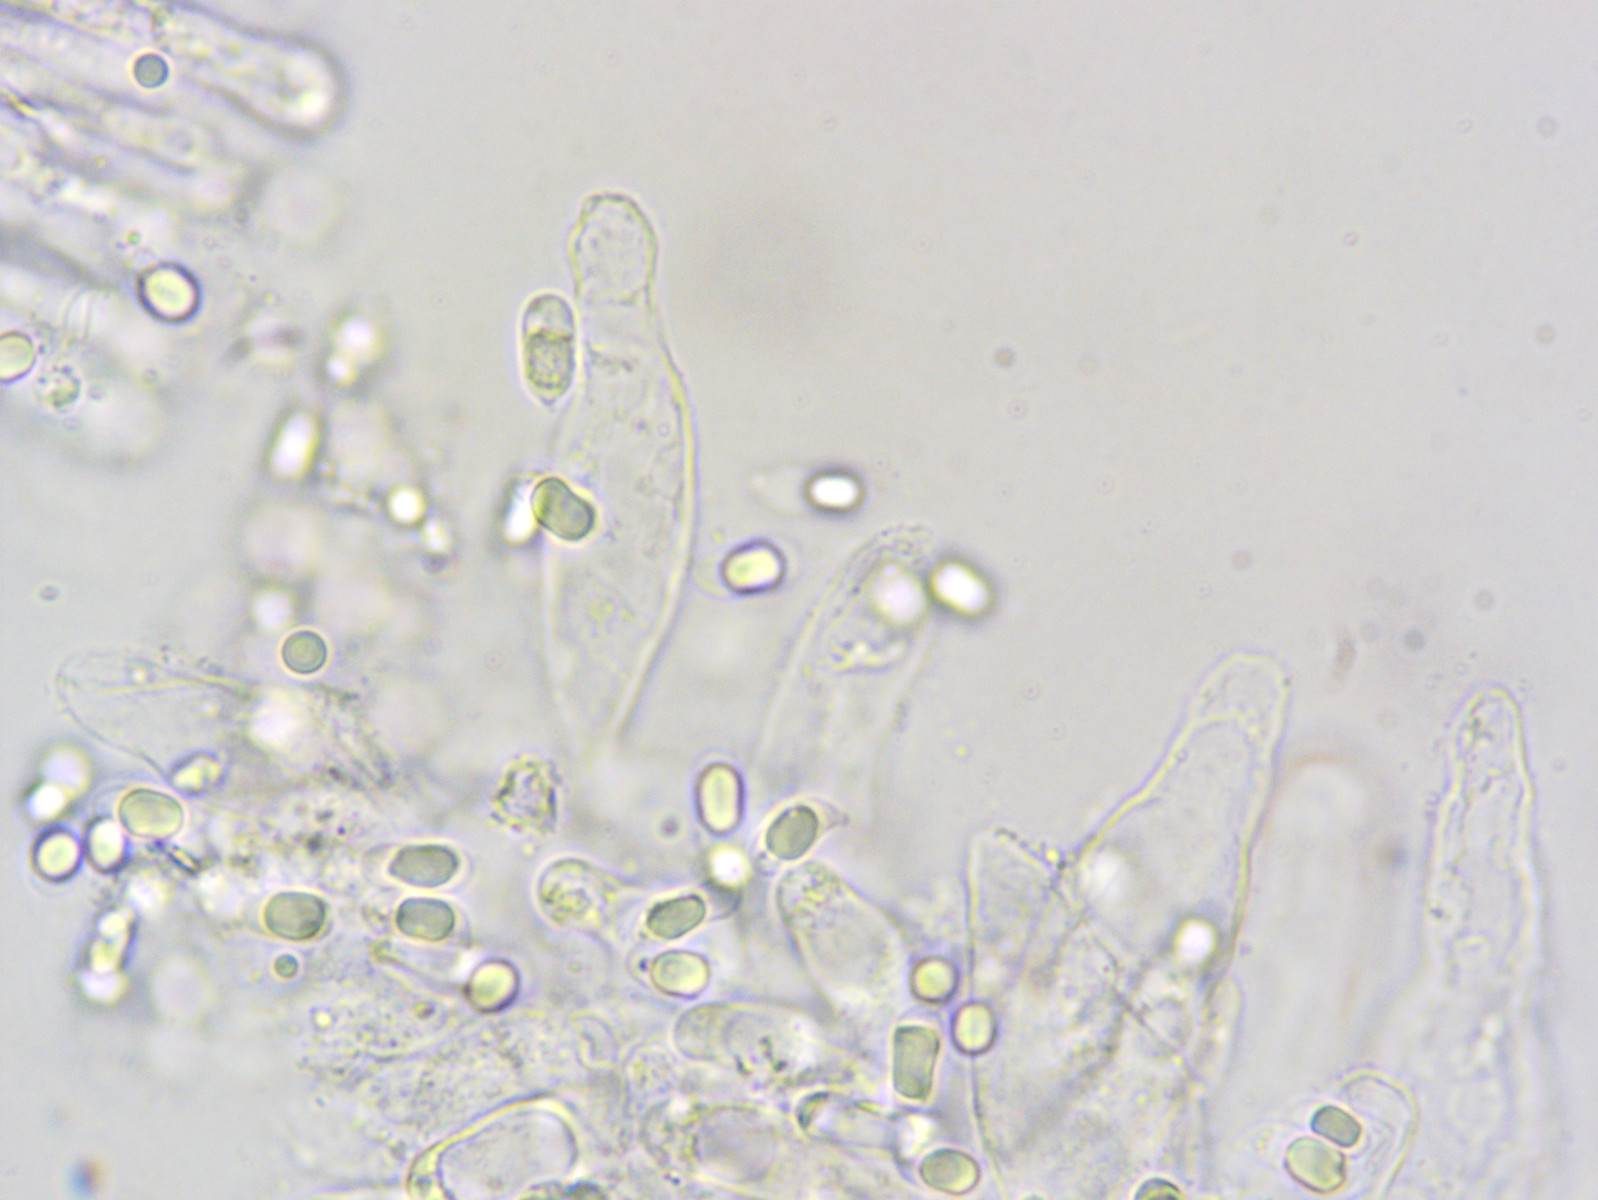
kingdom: Fungi
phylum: Basidiomycota
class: Agaricomycetes
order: Agaricales
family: Mycenaceae
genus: Mycena
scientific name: Mycena rosea
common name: rosa huesvamp
